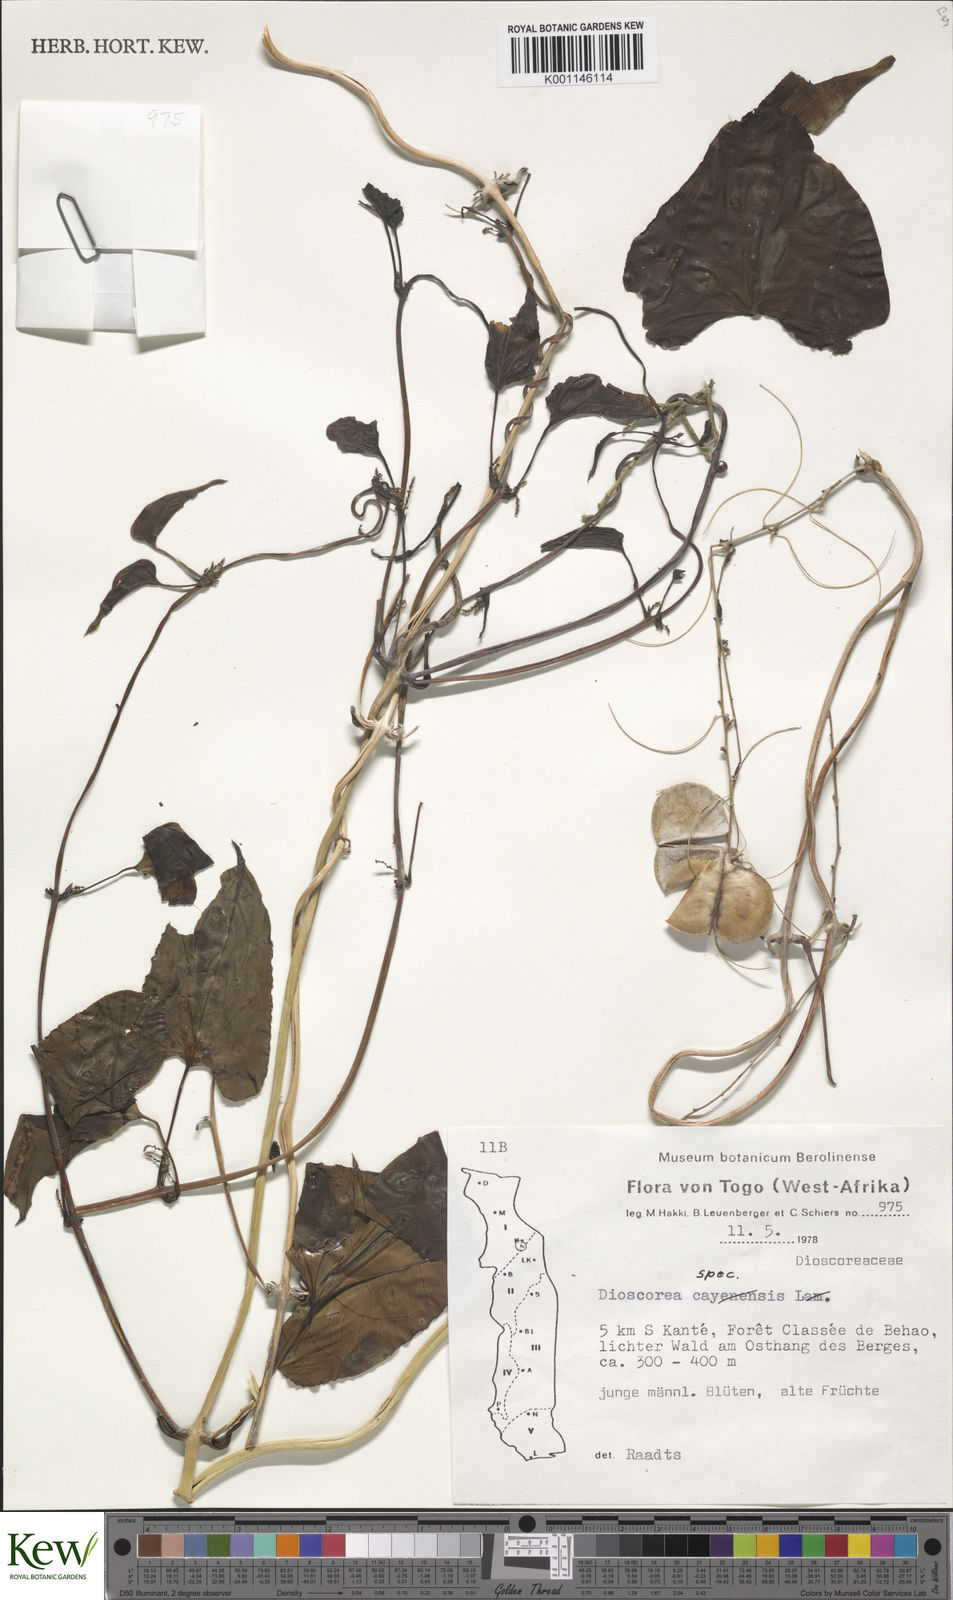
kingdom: Plantae
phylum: Tracheophyta
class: Liliopsida
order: Dioscoreales
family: Dioscoreaceae
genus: Dioscorea
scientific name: Dioscorea
